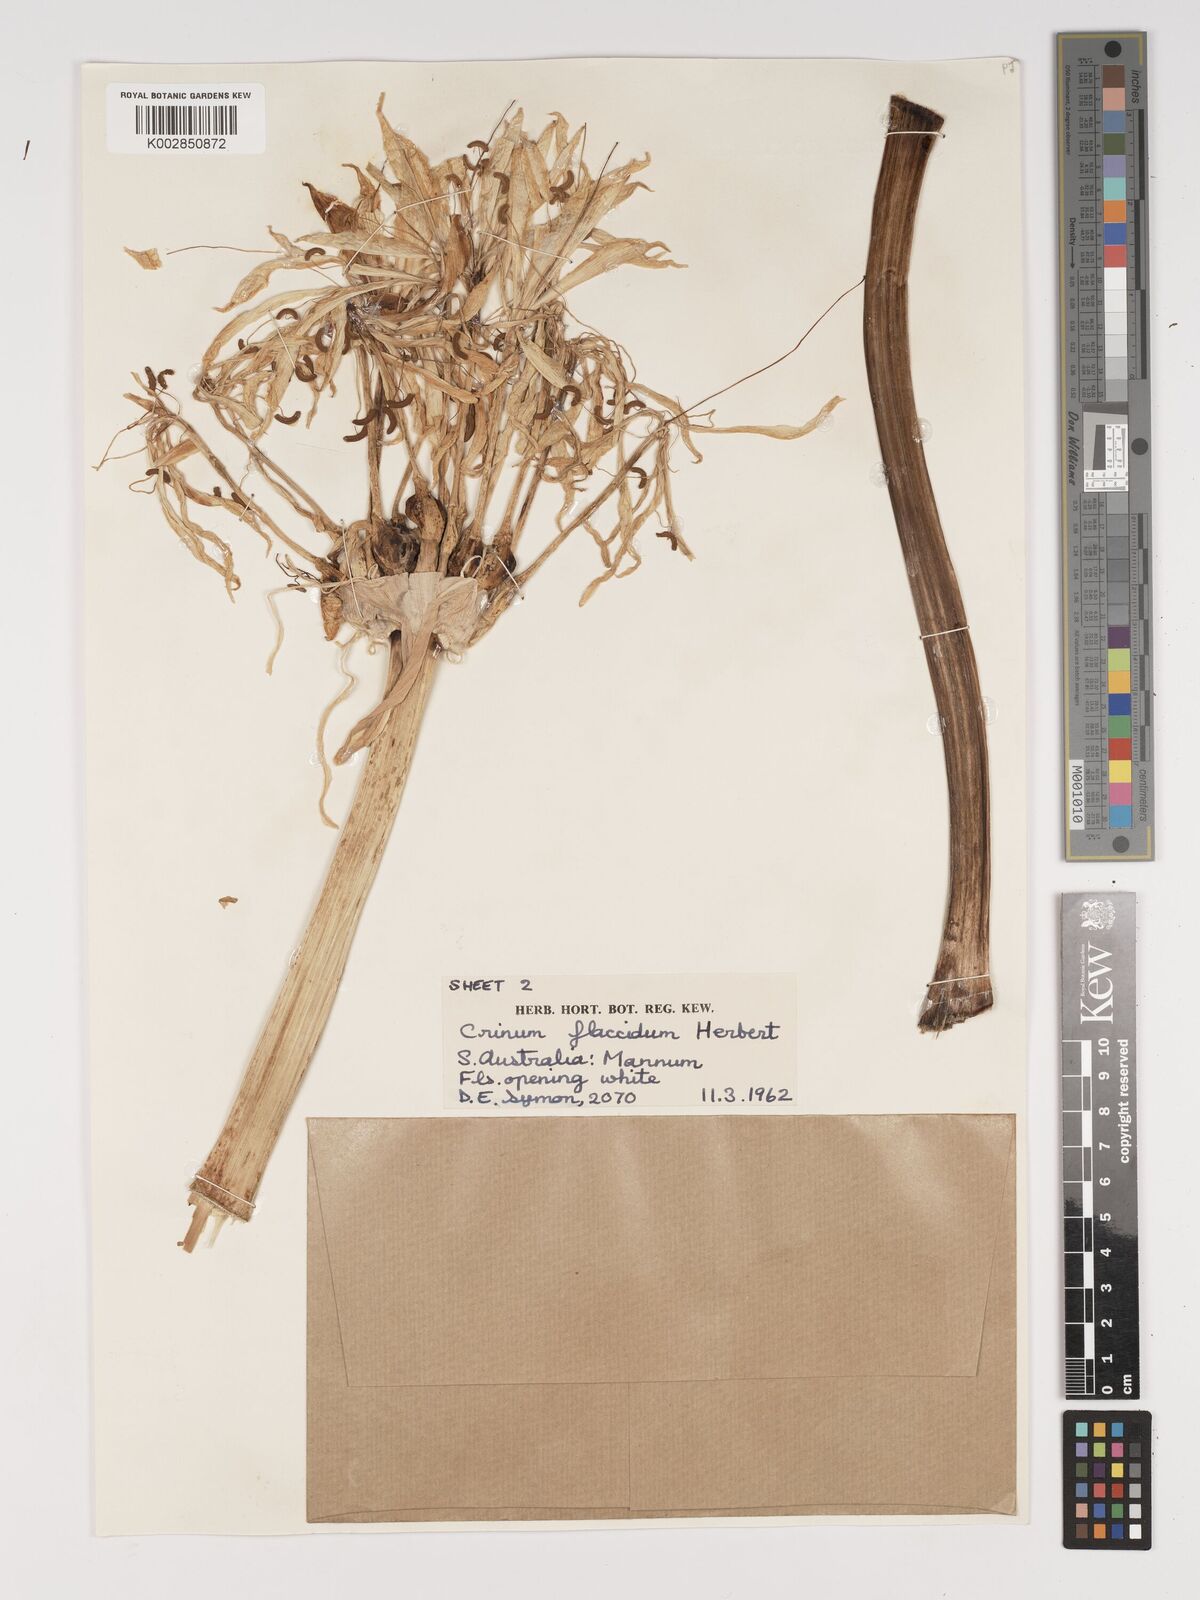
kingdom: Plantae
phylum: Tracheophyta
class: Liliopsida
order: Asparagales
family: Amaryllidaceae
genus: Crinum
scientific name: Crinum flaccidum
